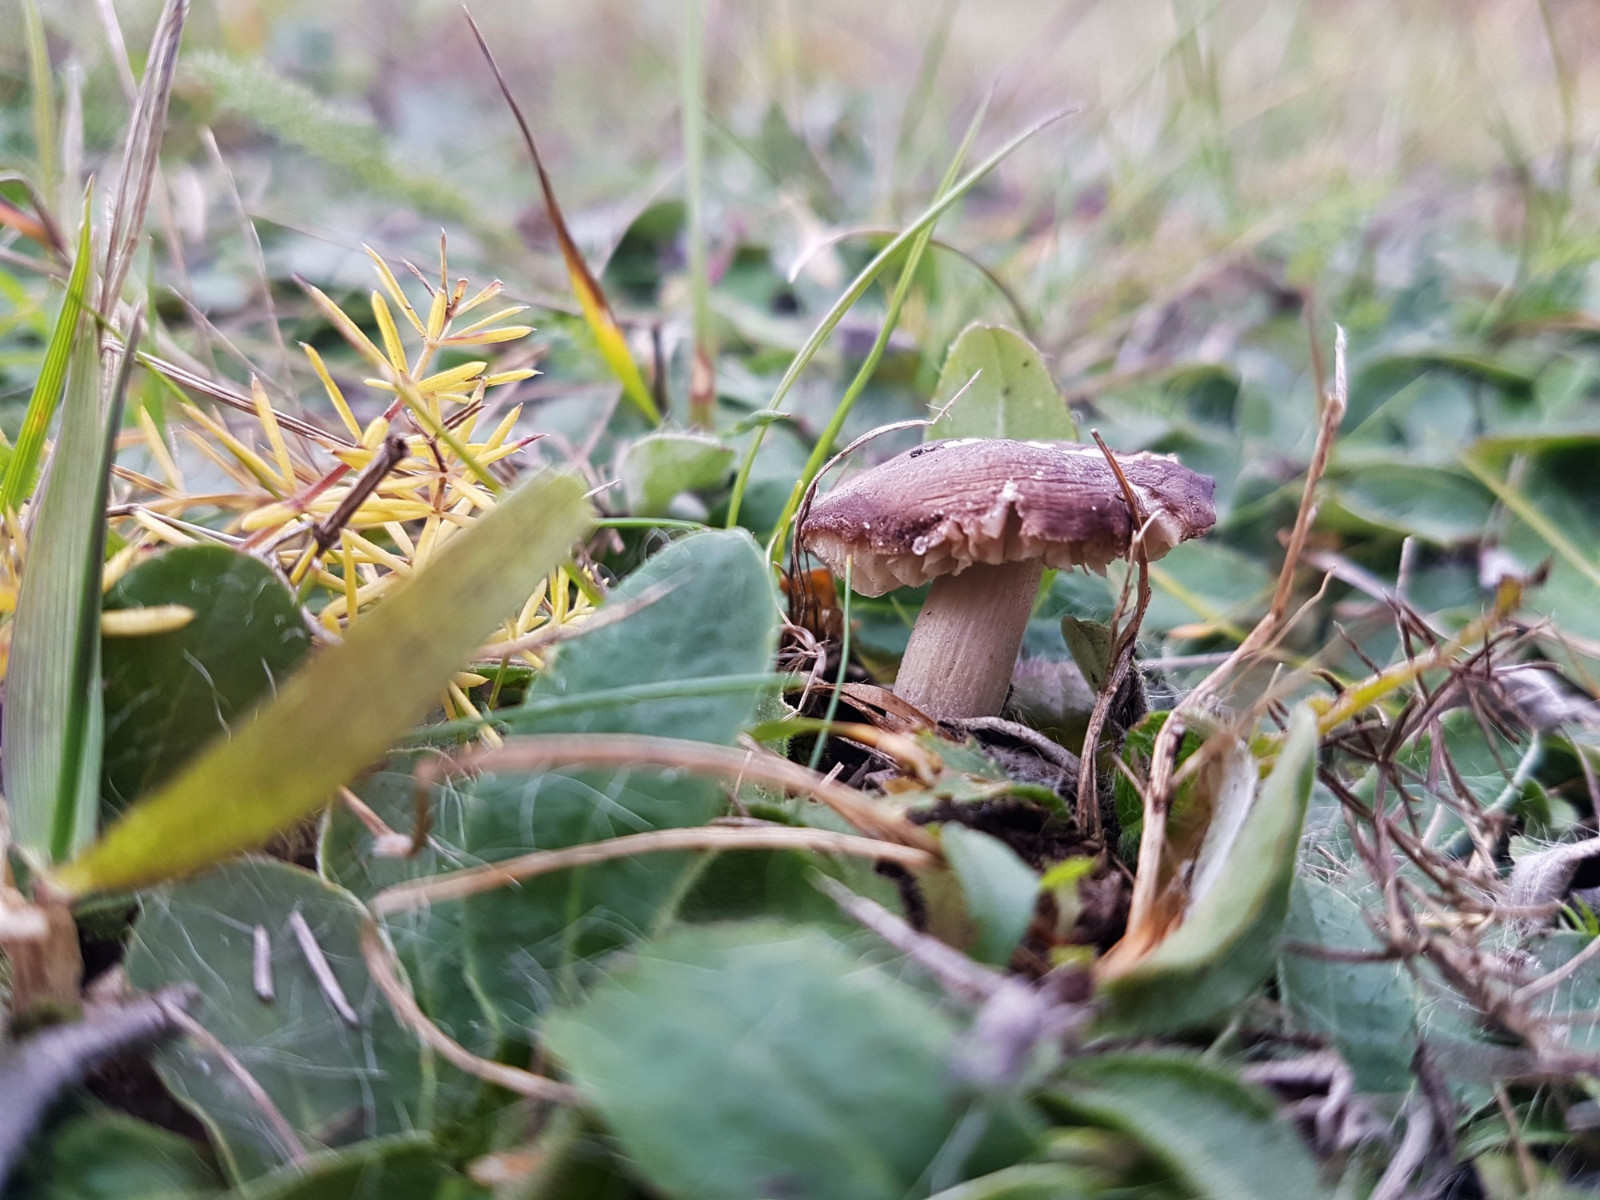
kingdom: Fungi
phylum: Basidiomycota
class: Agaricomycetes
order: Agaricales
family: Hygrophoraceae
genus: Neohygrocybe
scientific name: Neohygrocybe nitrata
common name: stinkende vokshat
